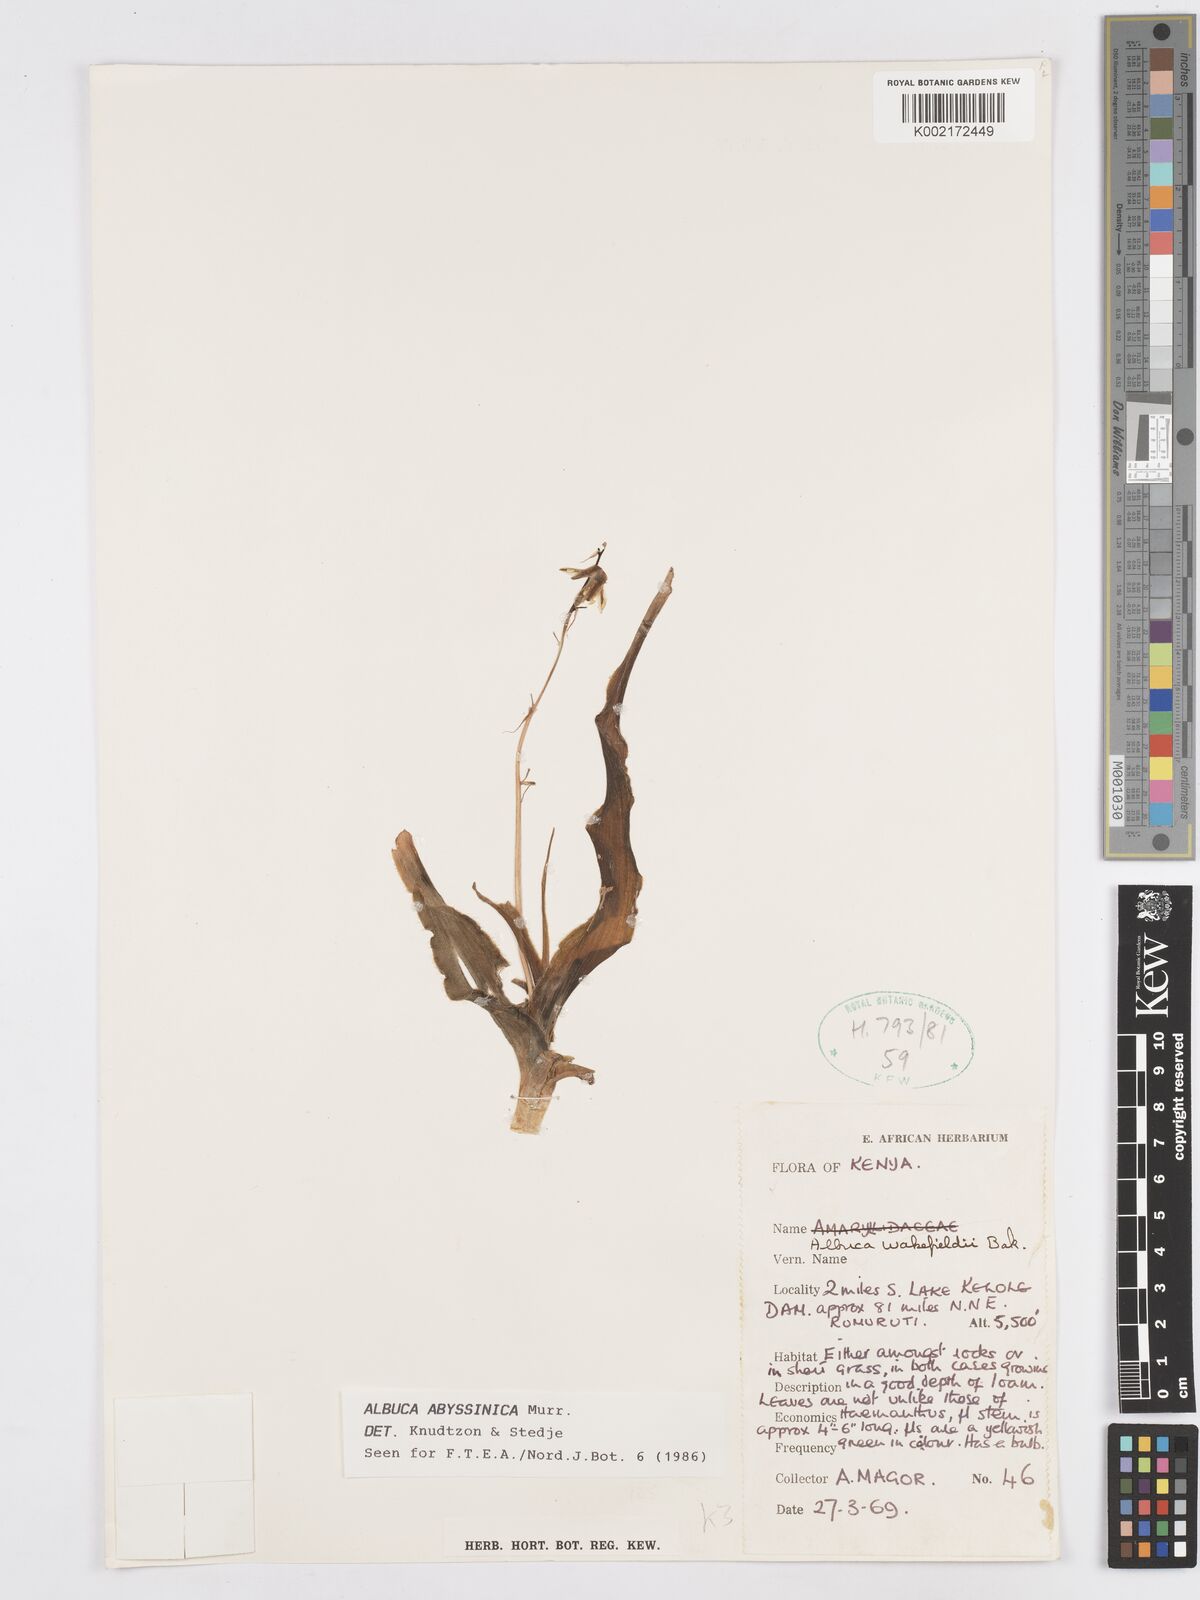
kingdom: Plantae
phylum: Tracheophyta
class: Liliopsida
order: Asparagales
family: Asparagaceae
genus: Albuca
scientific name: Albuca abyssinica
